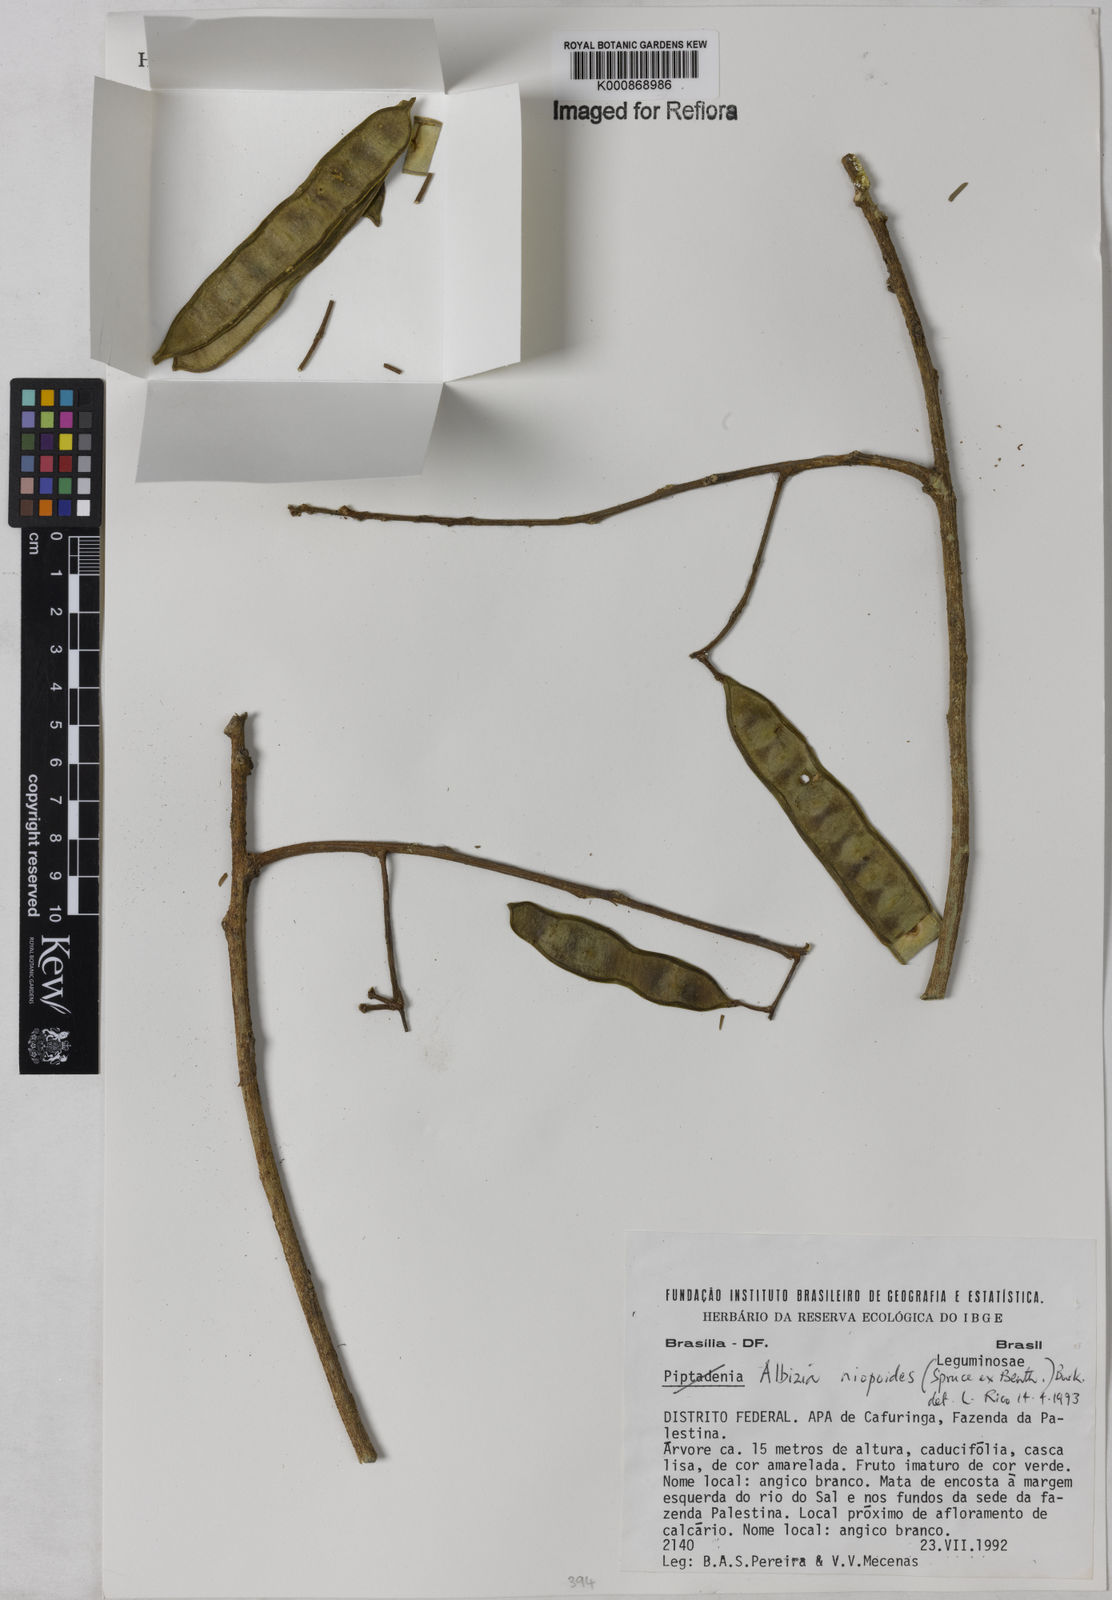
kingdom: Plantae
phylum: Tracheophyta
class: Magnoliopsida
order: Fabales
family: Fabaceae
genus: Albizia
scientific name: Albizia niopoides
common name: Silk tree
